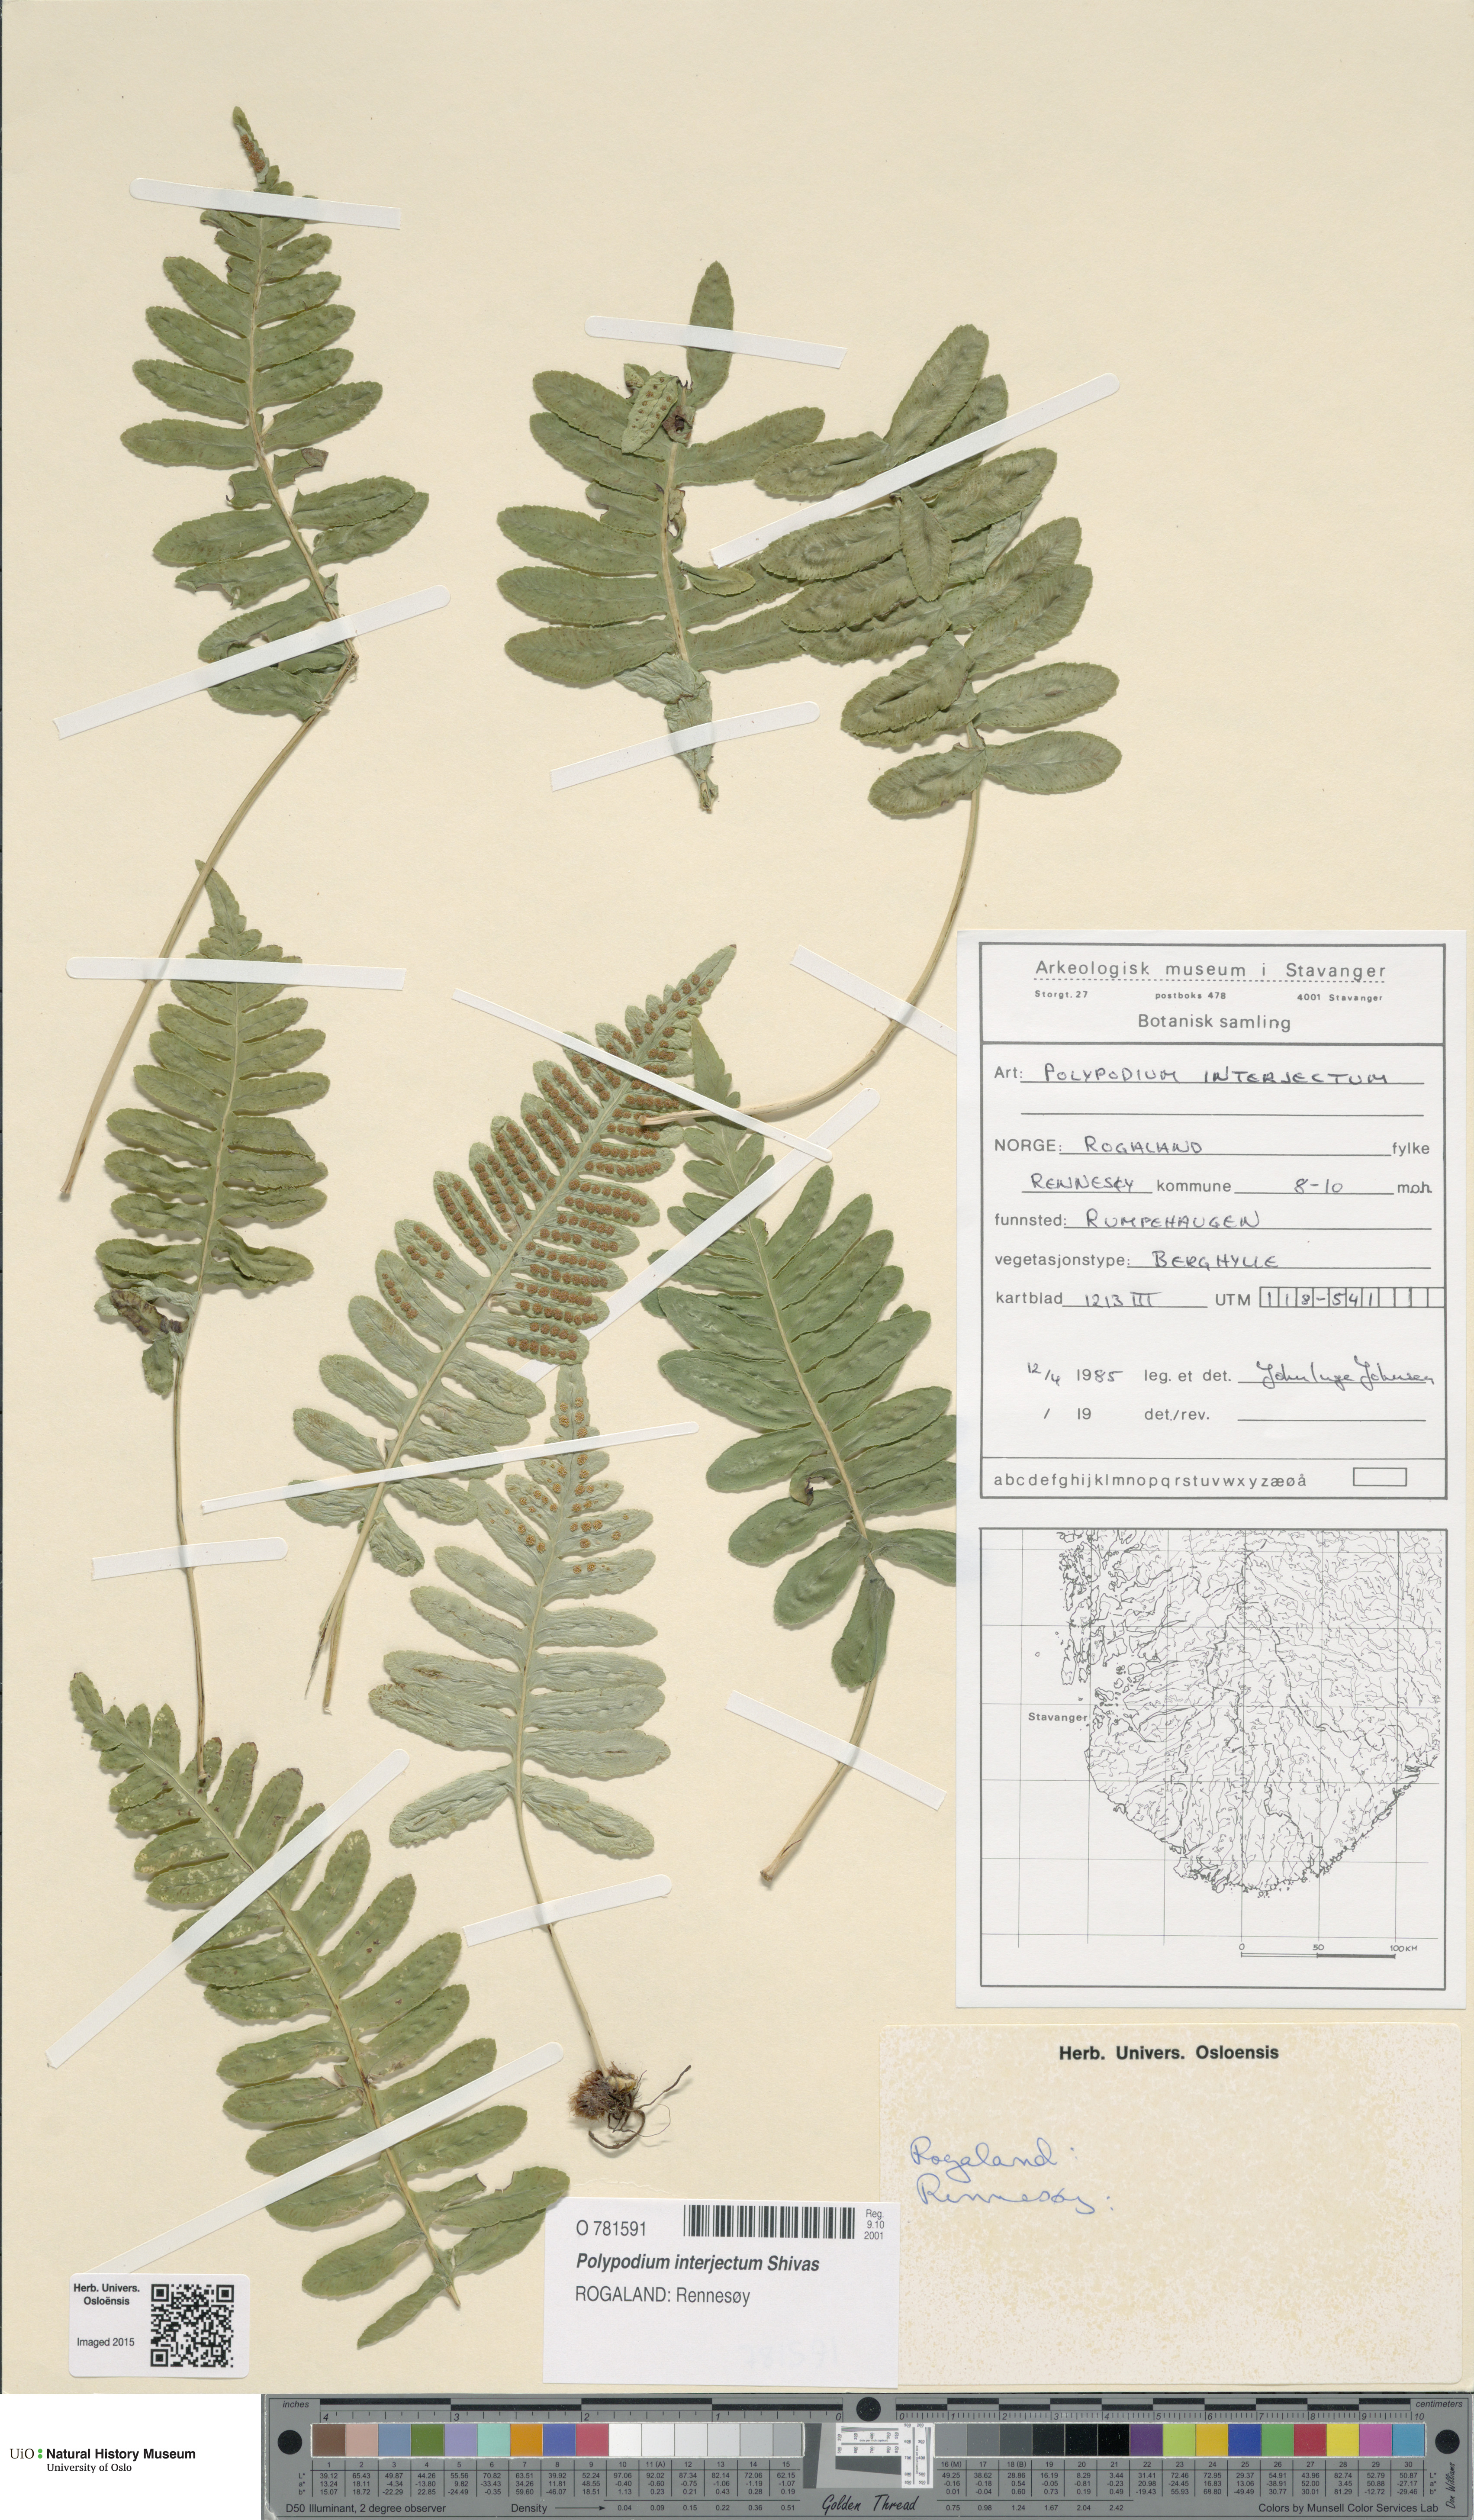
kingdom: Plantae
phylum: Tracheophyta
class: Polypodiopsida
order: Polypodiales
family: Polypodiaceae
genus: Polypodium
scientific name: Polypodium interjectum
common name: Intermediate polypody
